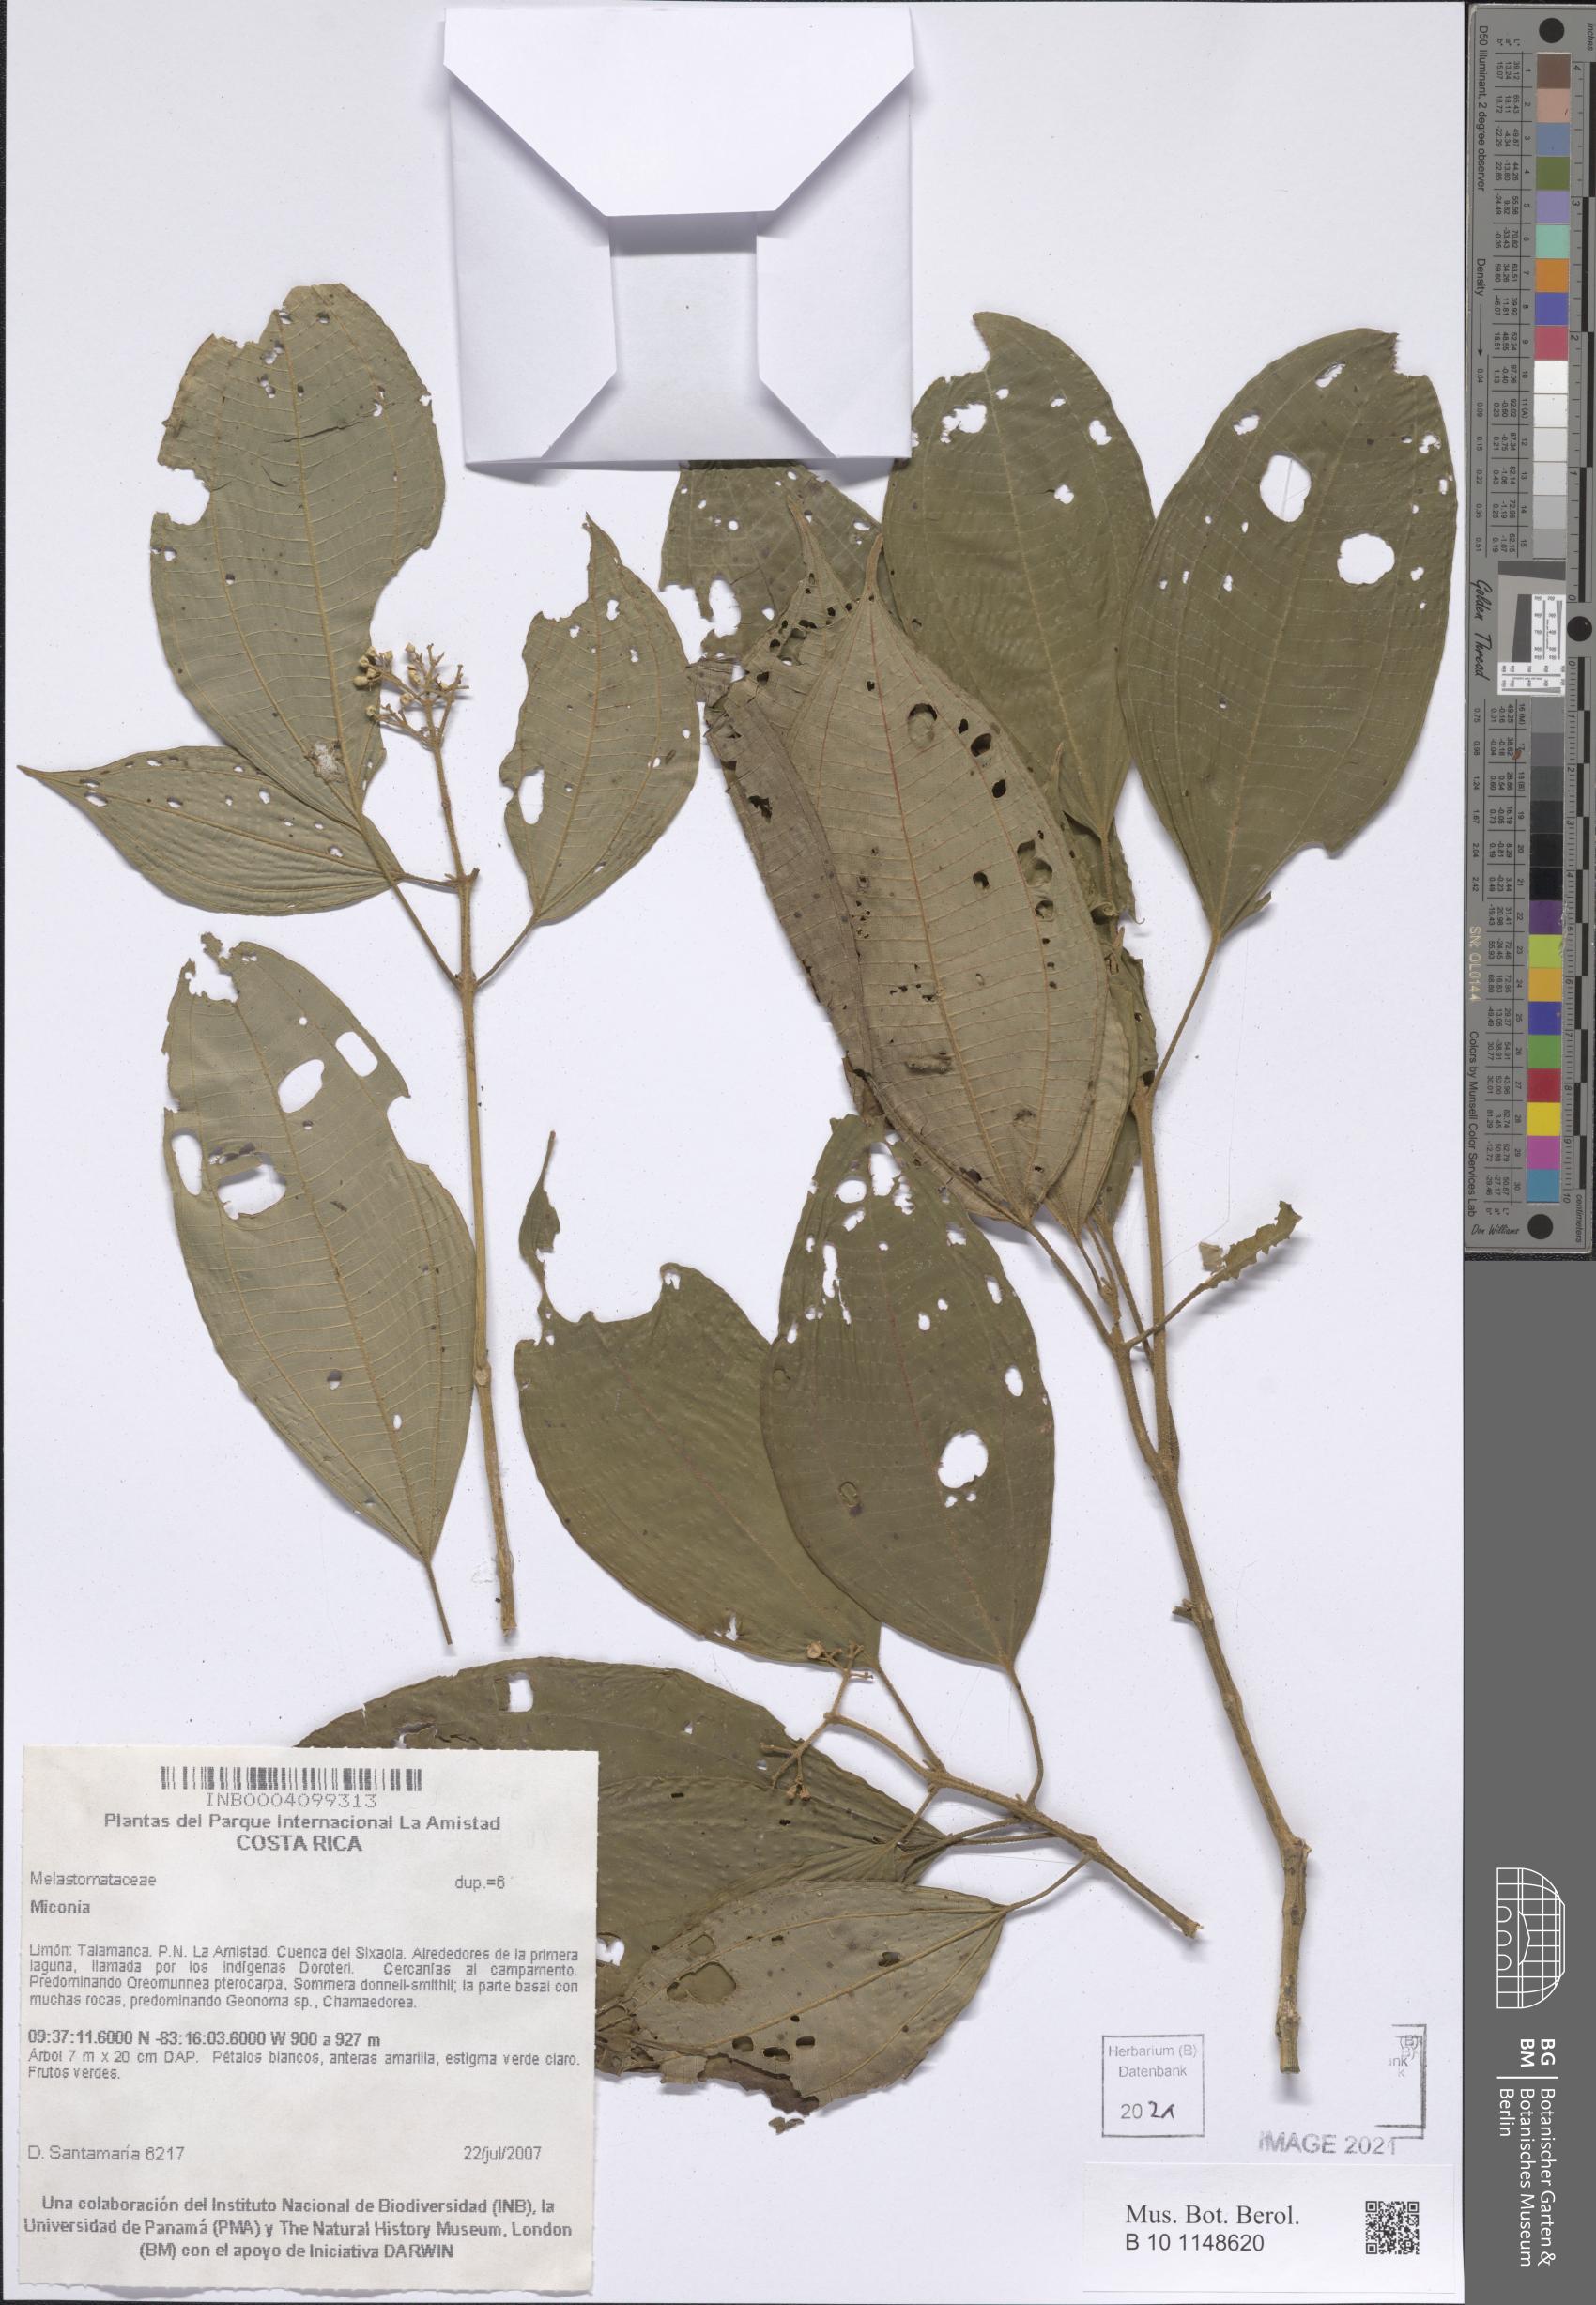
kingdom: Plantae
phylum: Tracheophyta
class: Magnoliopsida
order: Myrtales
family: Melastomataceae
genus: Miconia
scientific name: Miconia
